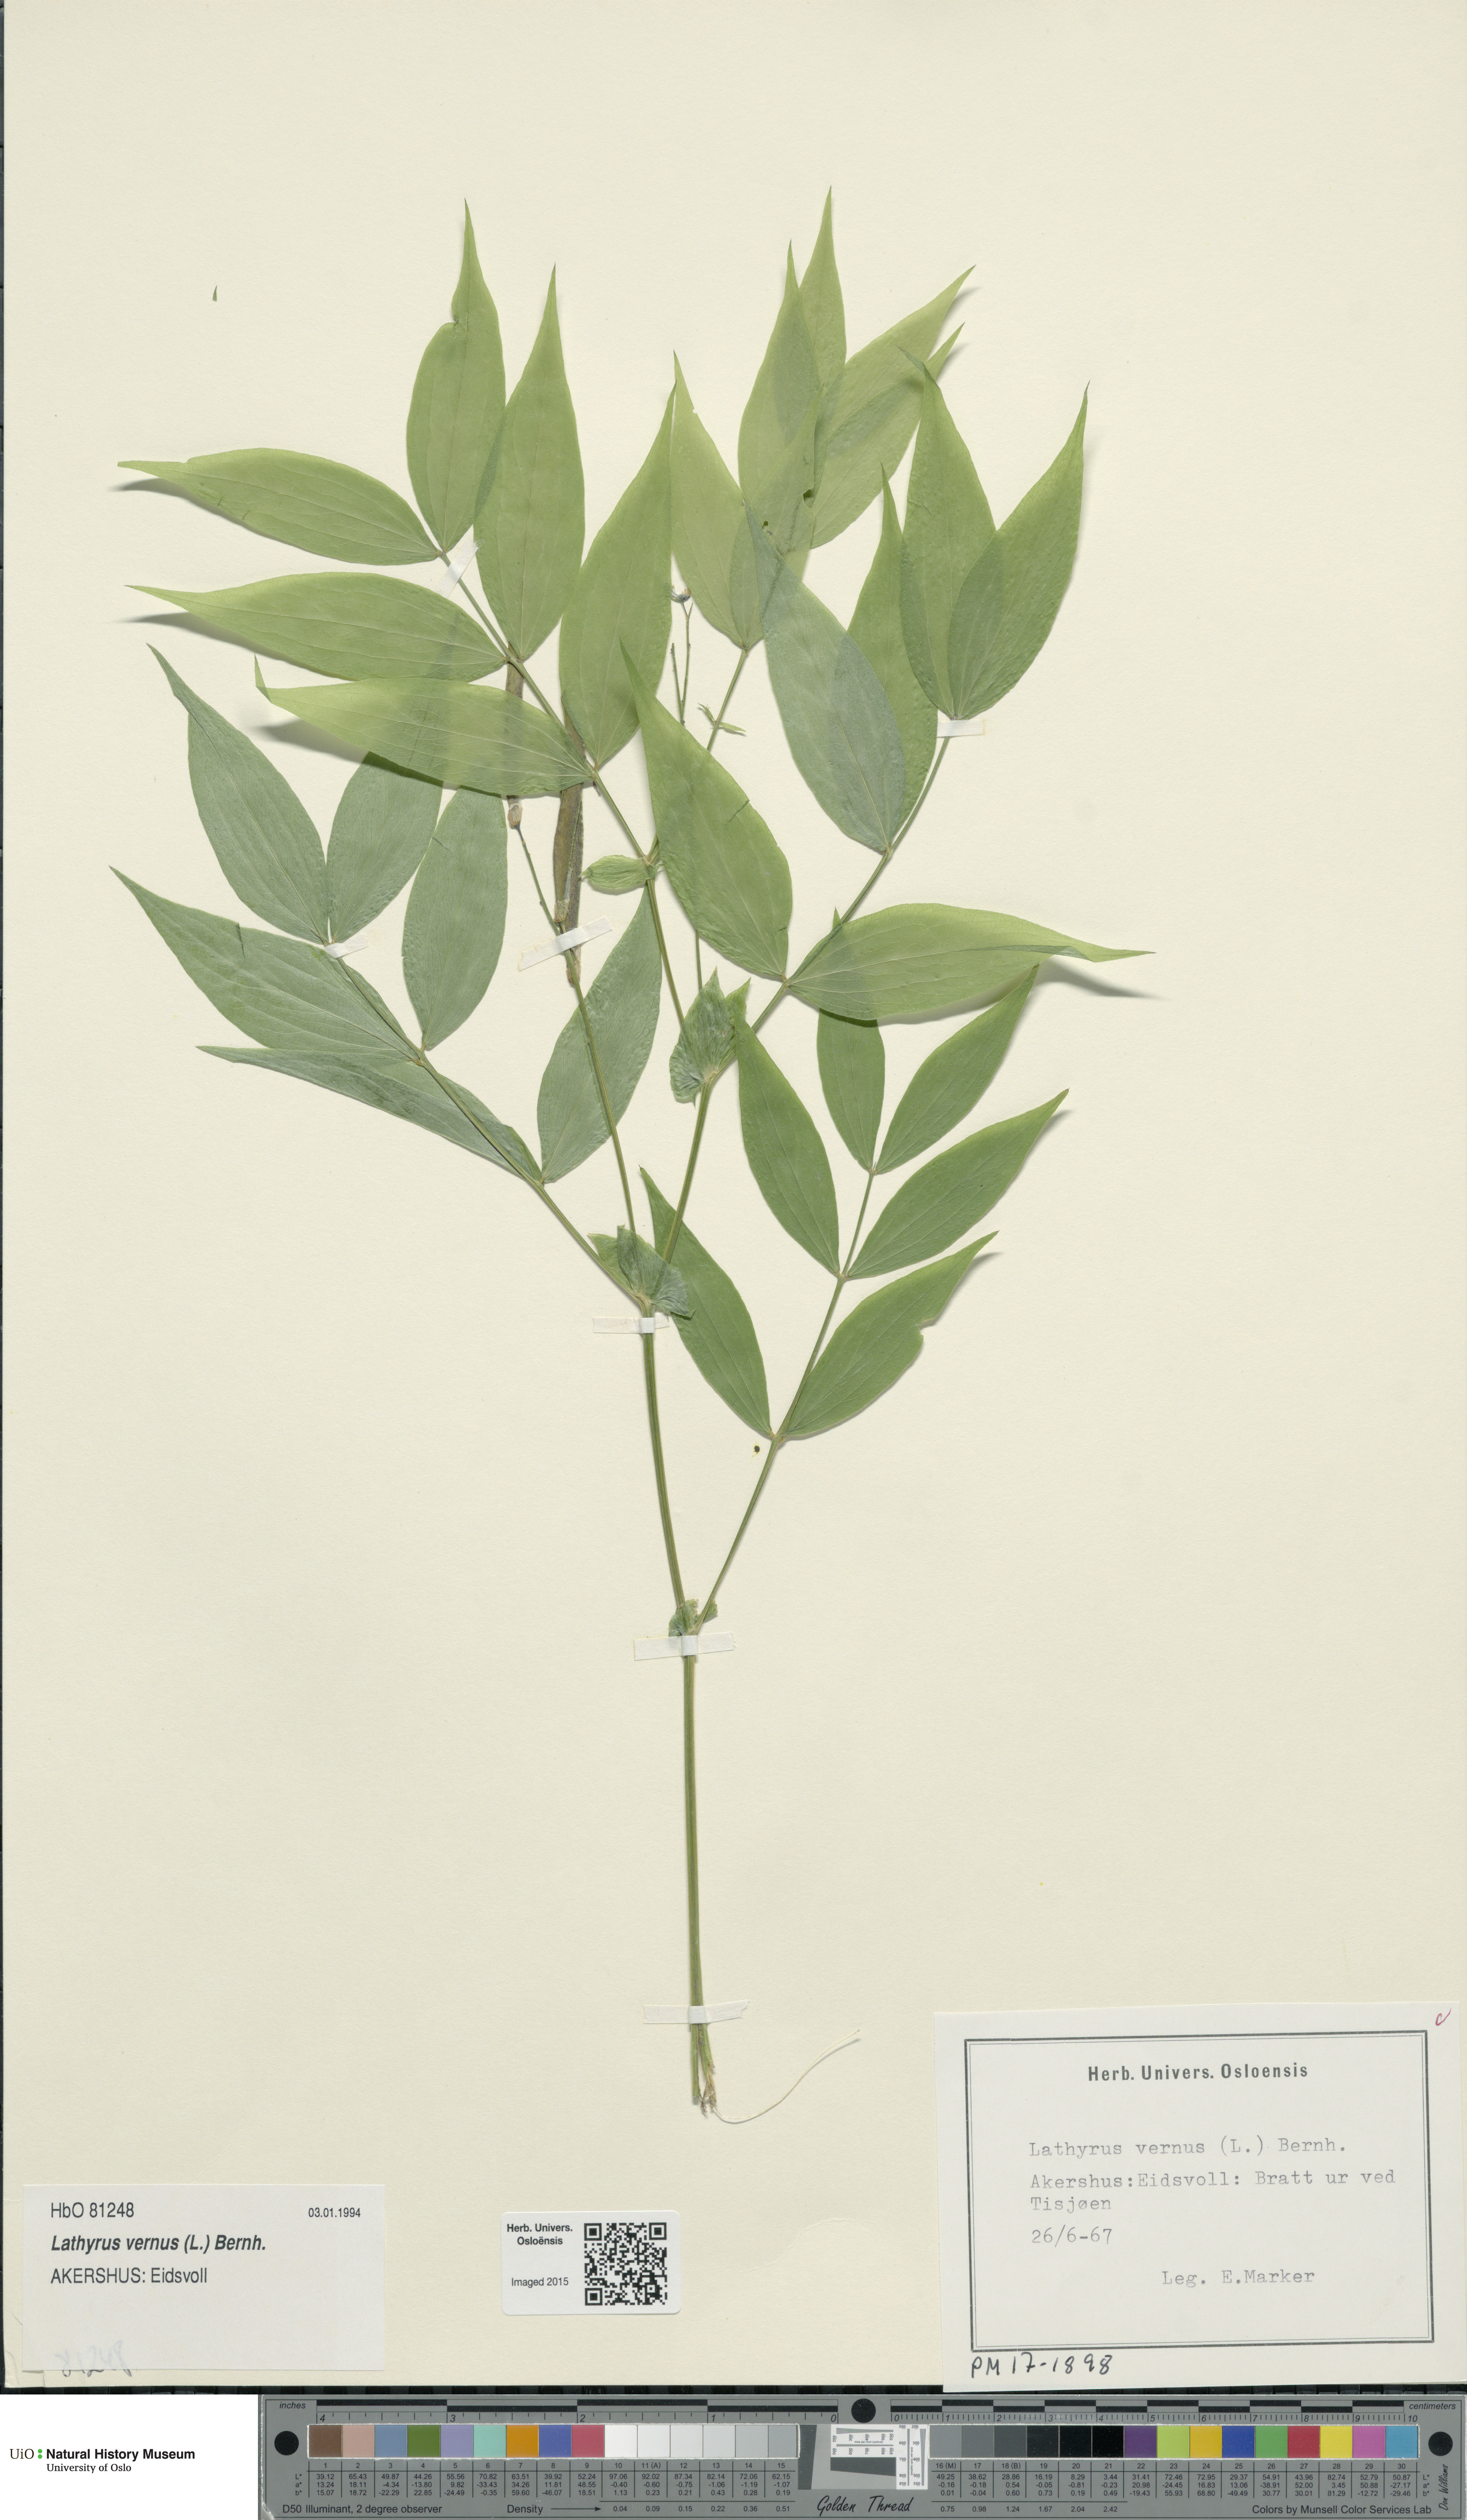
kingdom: Plantae
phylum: Tracheophyta
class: Magnoliopsida
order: Fabales
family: Fabaceae
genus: Lathyrus
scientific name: Lathyrus vernus
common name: Spring pea
